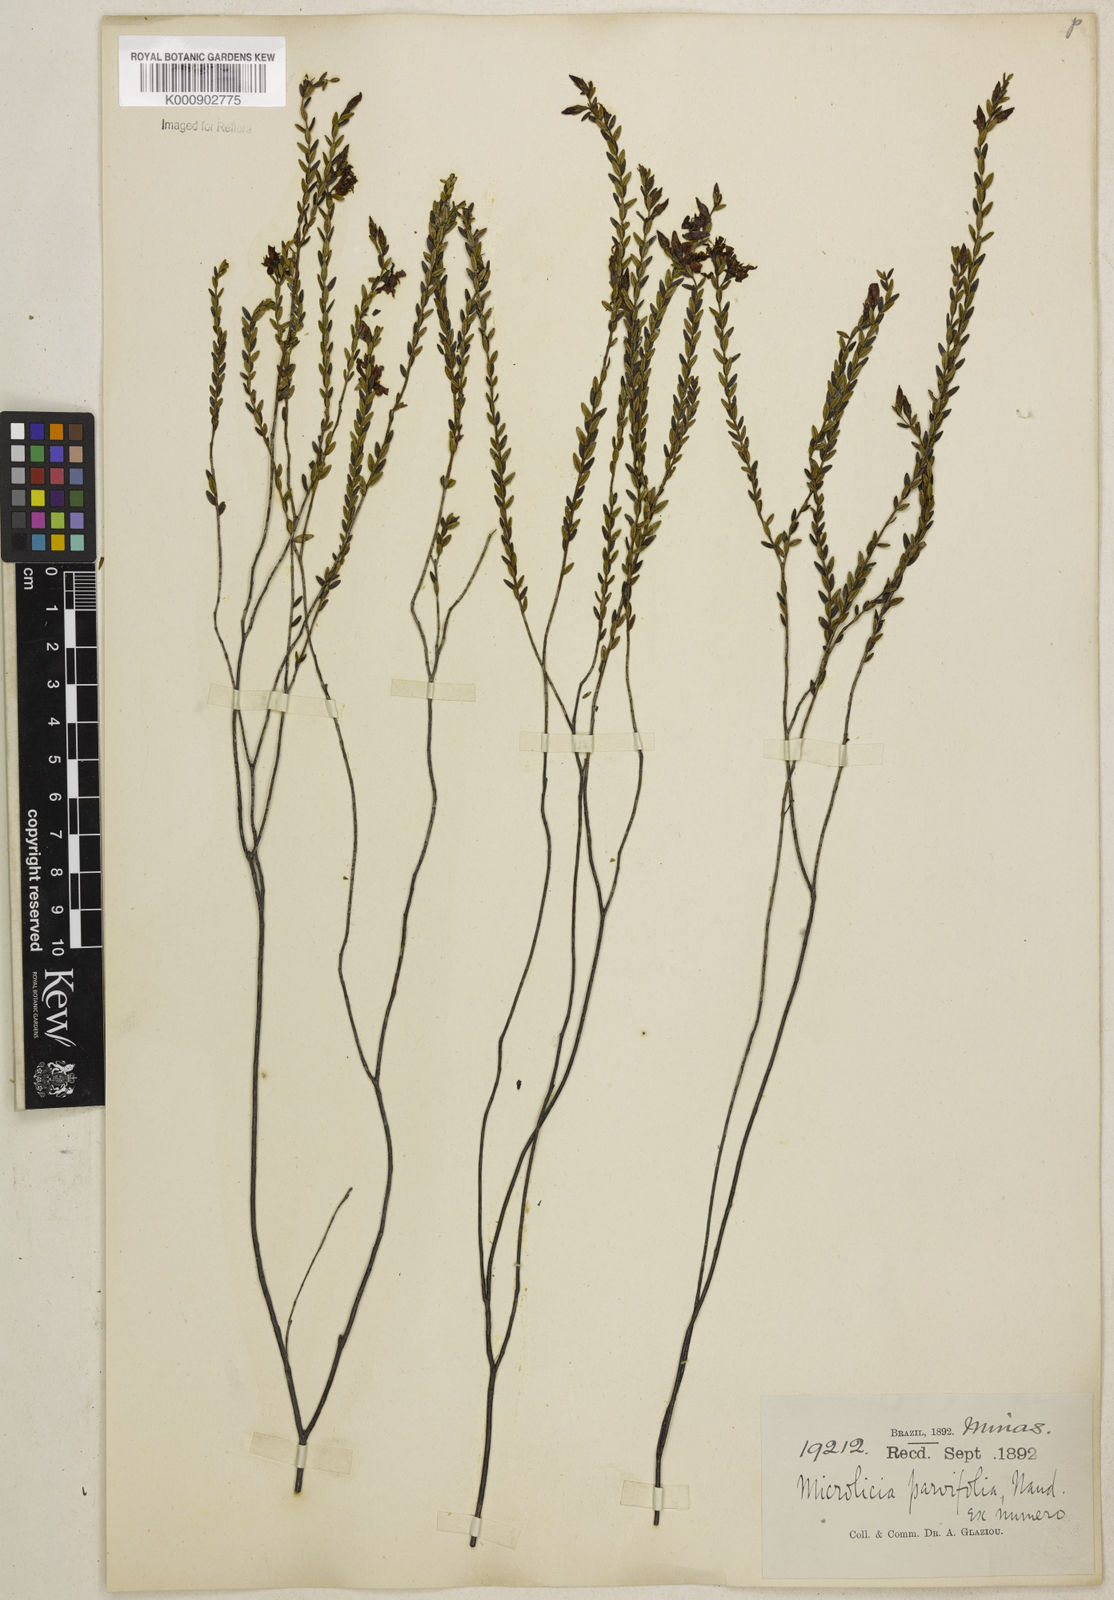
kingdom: Plantae
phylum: Tracheophyta
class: Magnoliopsida
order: Myrtales
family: Melastomataceae
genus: Microlicia
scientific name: Microlicia isophylla
